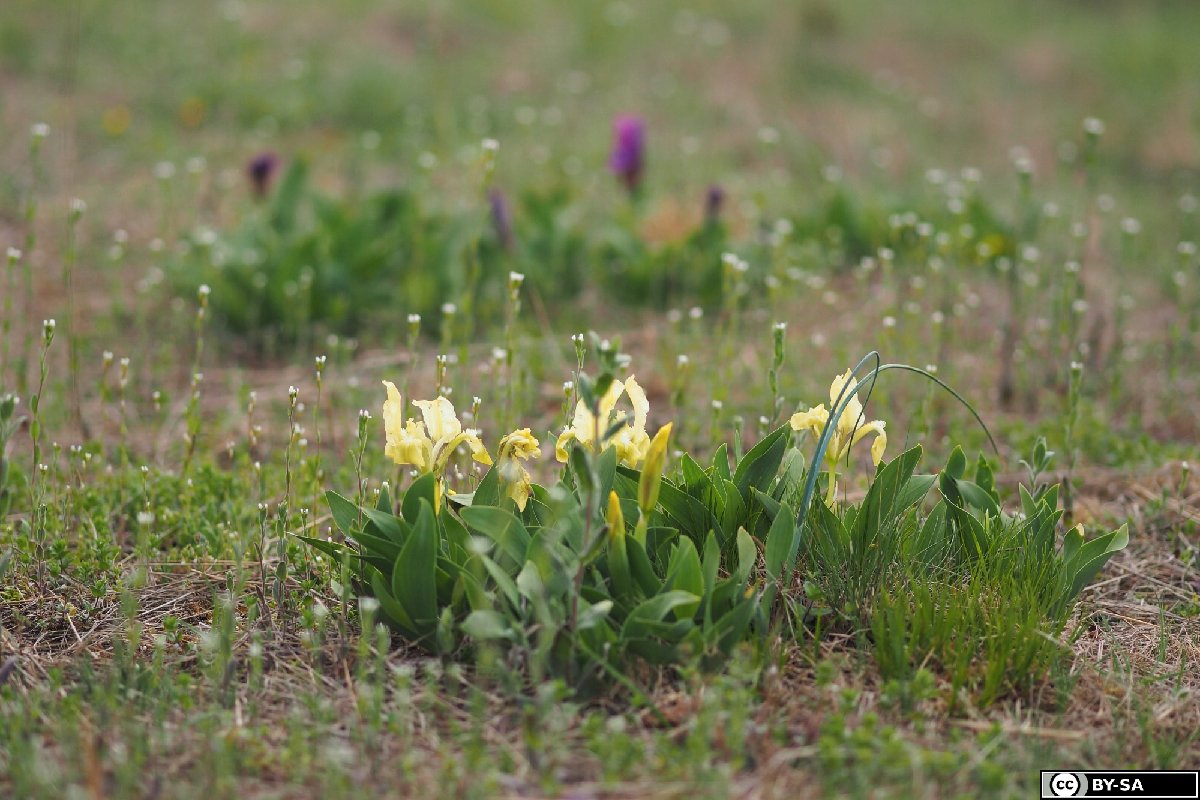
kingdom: Plantae
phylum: Tracheophyta
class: Liliopsida
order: Asparagales
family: Iridaceae
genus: Iris
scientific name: Iris pumila
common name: Dwarf iris
